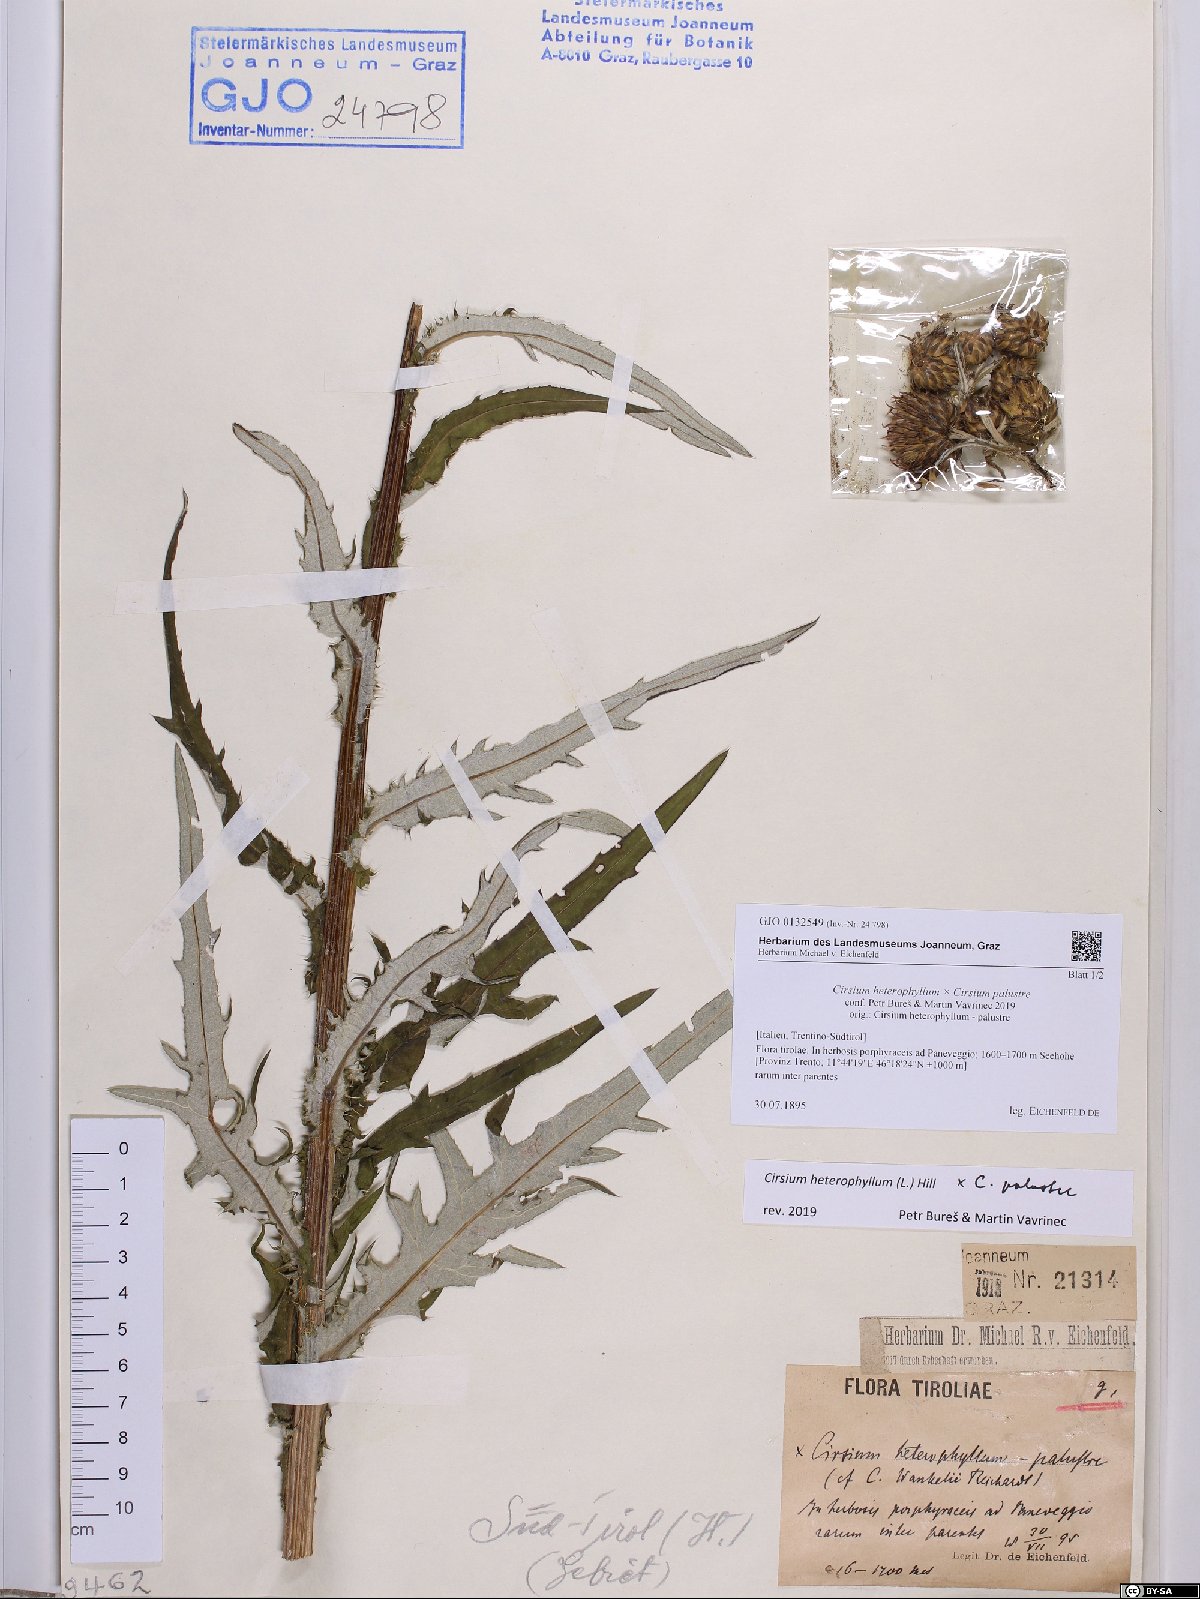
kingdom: Plantae
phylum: Tracheophyta
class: Magnoliopsida
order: Asterales
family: Asteraceae
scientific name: Asteraceae
